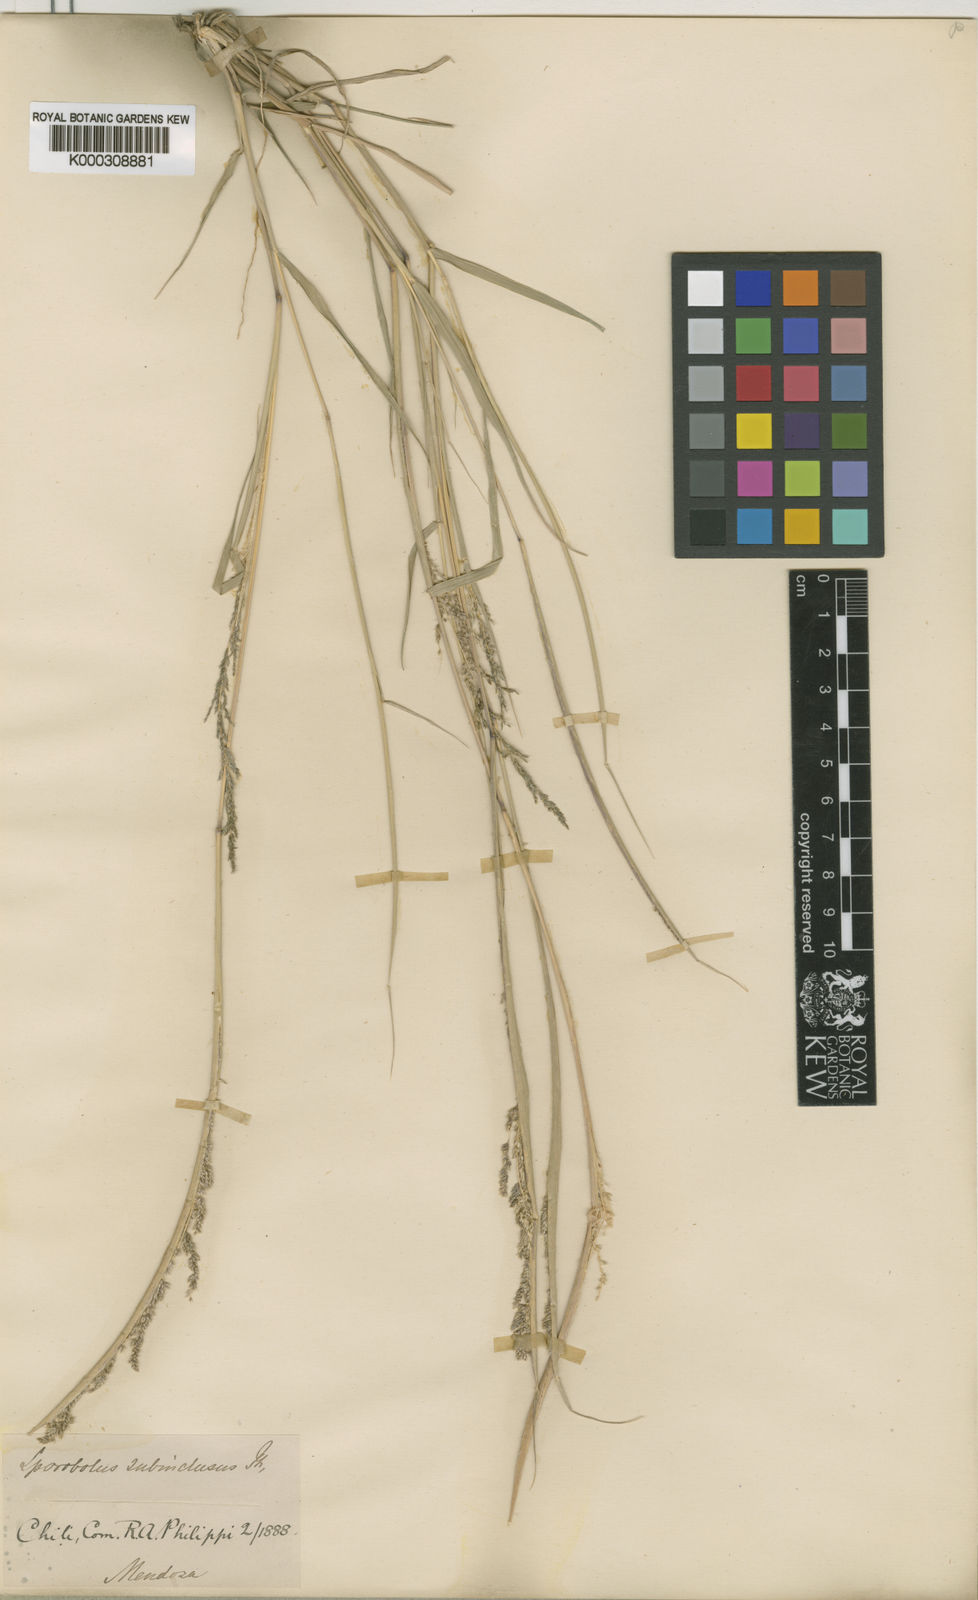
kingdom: Plantae
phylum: Tracheophyta
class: Liliopsida
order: Poales
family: Poaceae
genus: Sporobolus
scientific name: Sporobolus cryptandrus
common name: Sand dropseed
